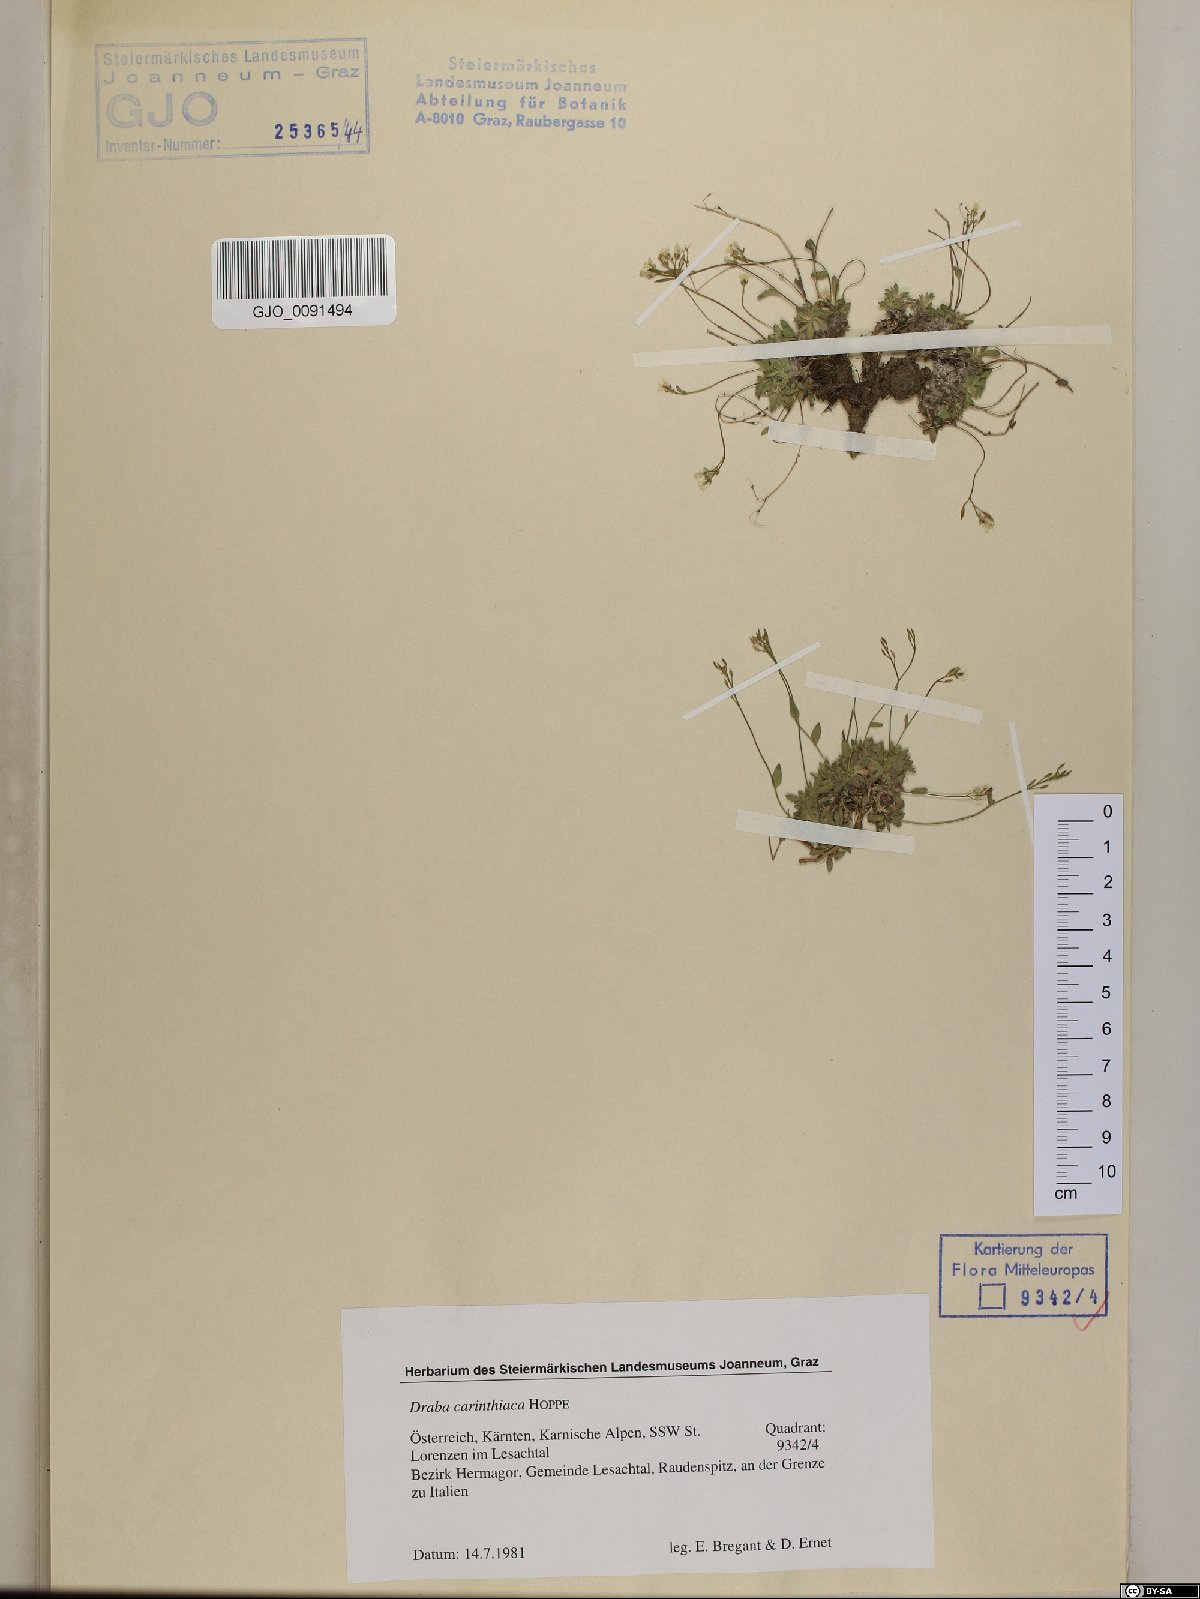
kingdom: Plantae
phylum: Tracheophyta
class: Magnoliopsida
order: Brassicales
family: Brassicaceae
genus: Draba
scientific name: Draba siliquosa
